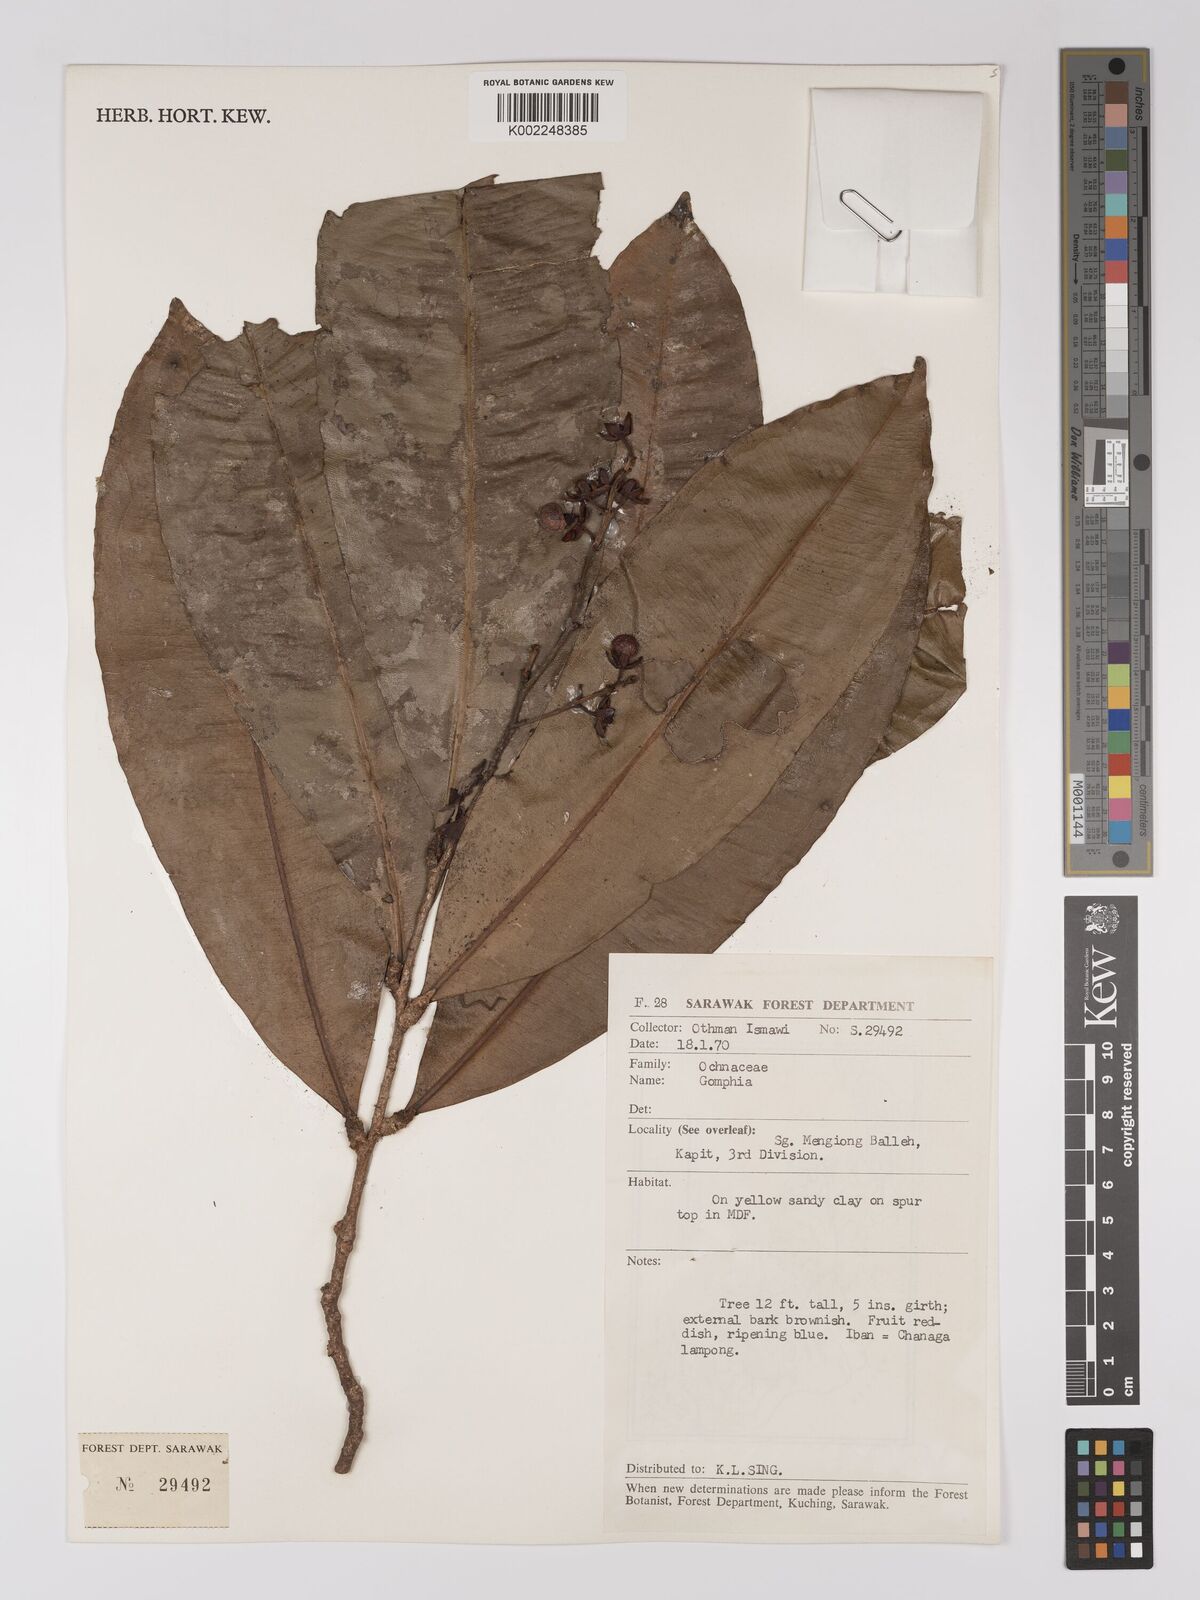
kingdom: Plantae
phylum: Tracheophyta
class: Magnoliopsida
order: Malpighiales
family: Ochnaceae
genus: Gomphia
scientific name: Gomphia serrata
